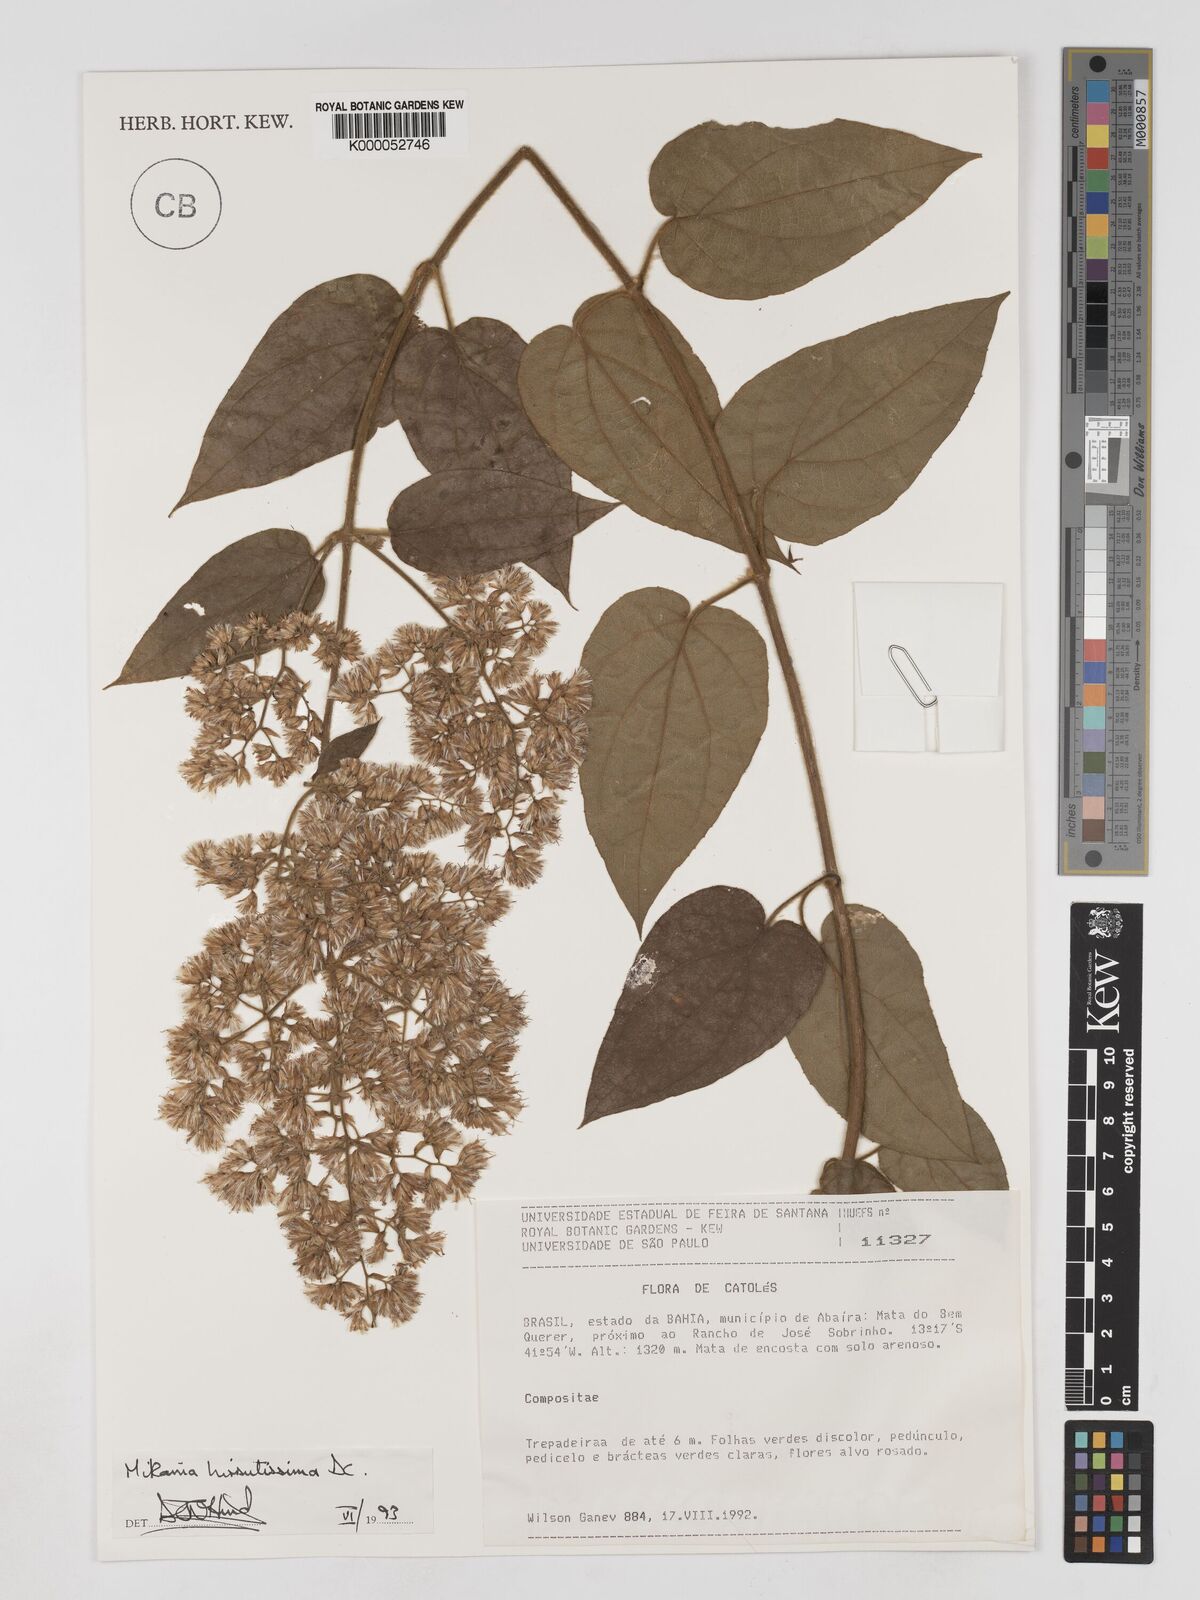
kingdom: Plantae
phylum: Tracheophyta
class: Magnoliopsida
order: Asterales
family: Asteraceae
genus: Mikania
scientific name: Mikania banisteriae
